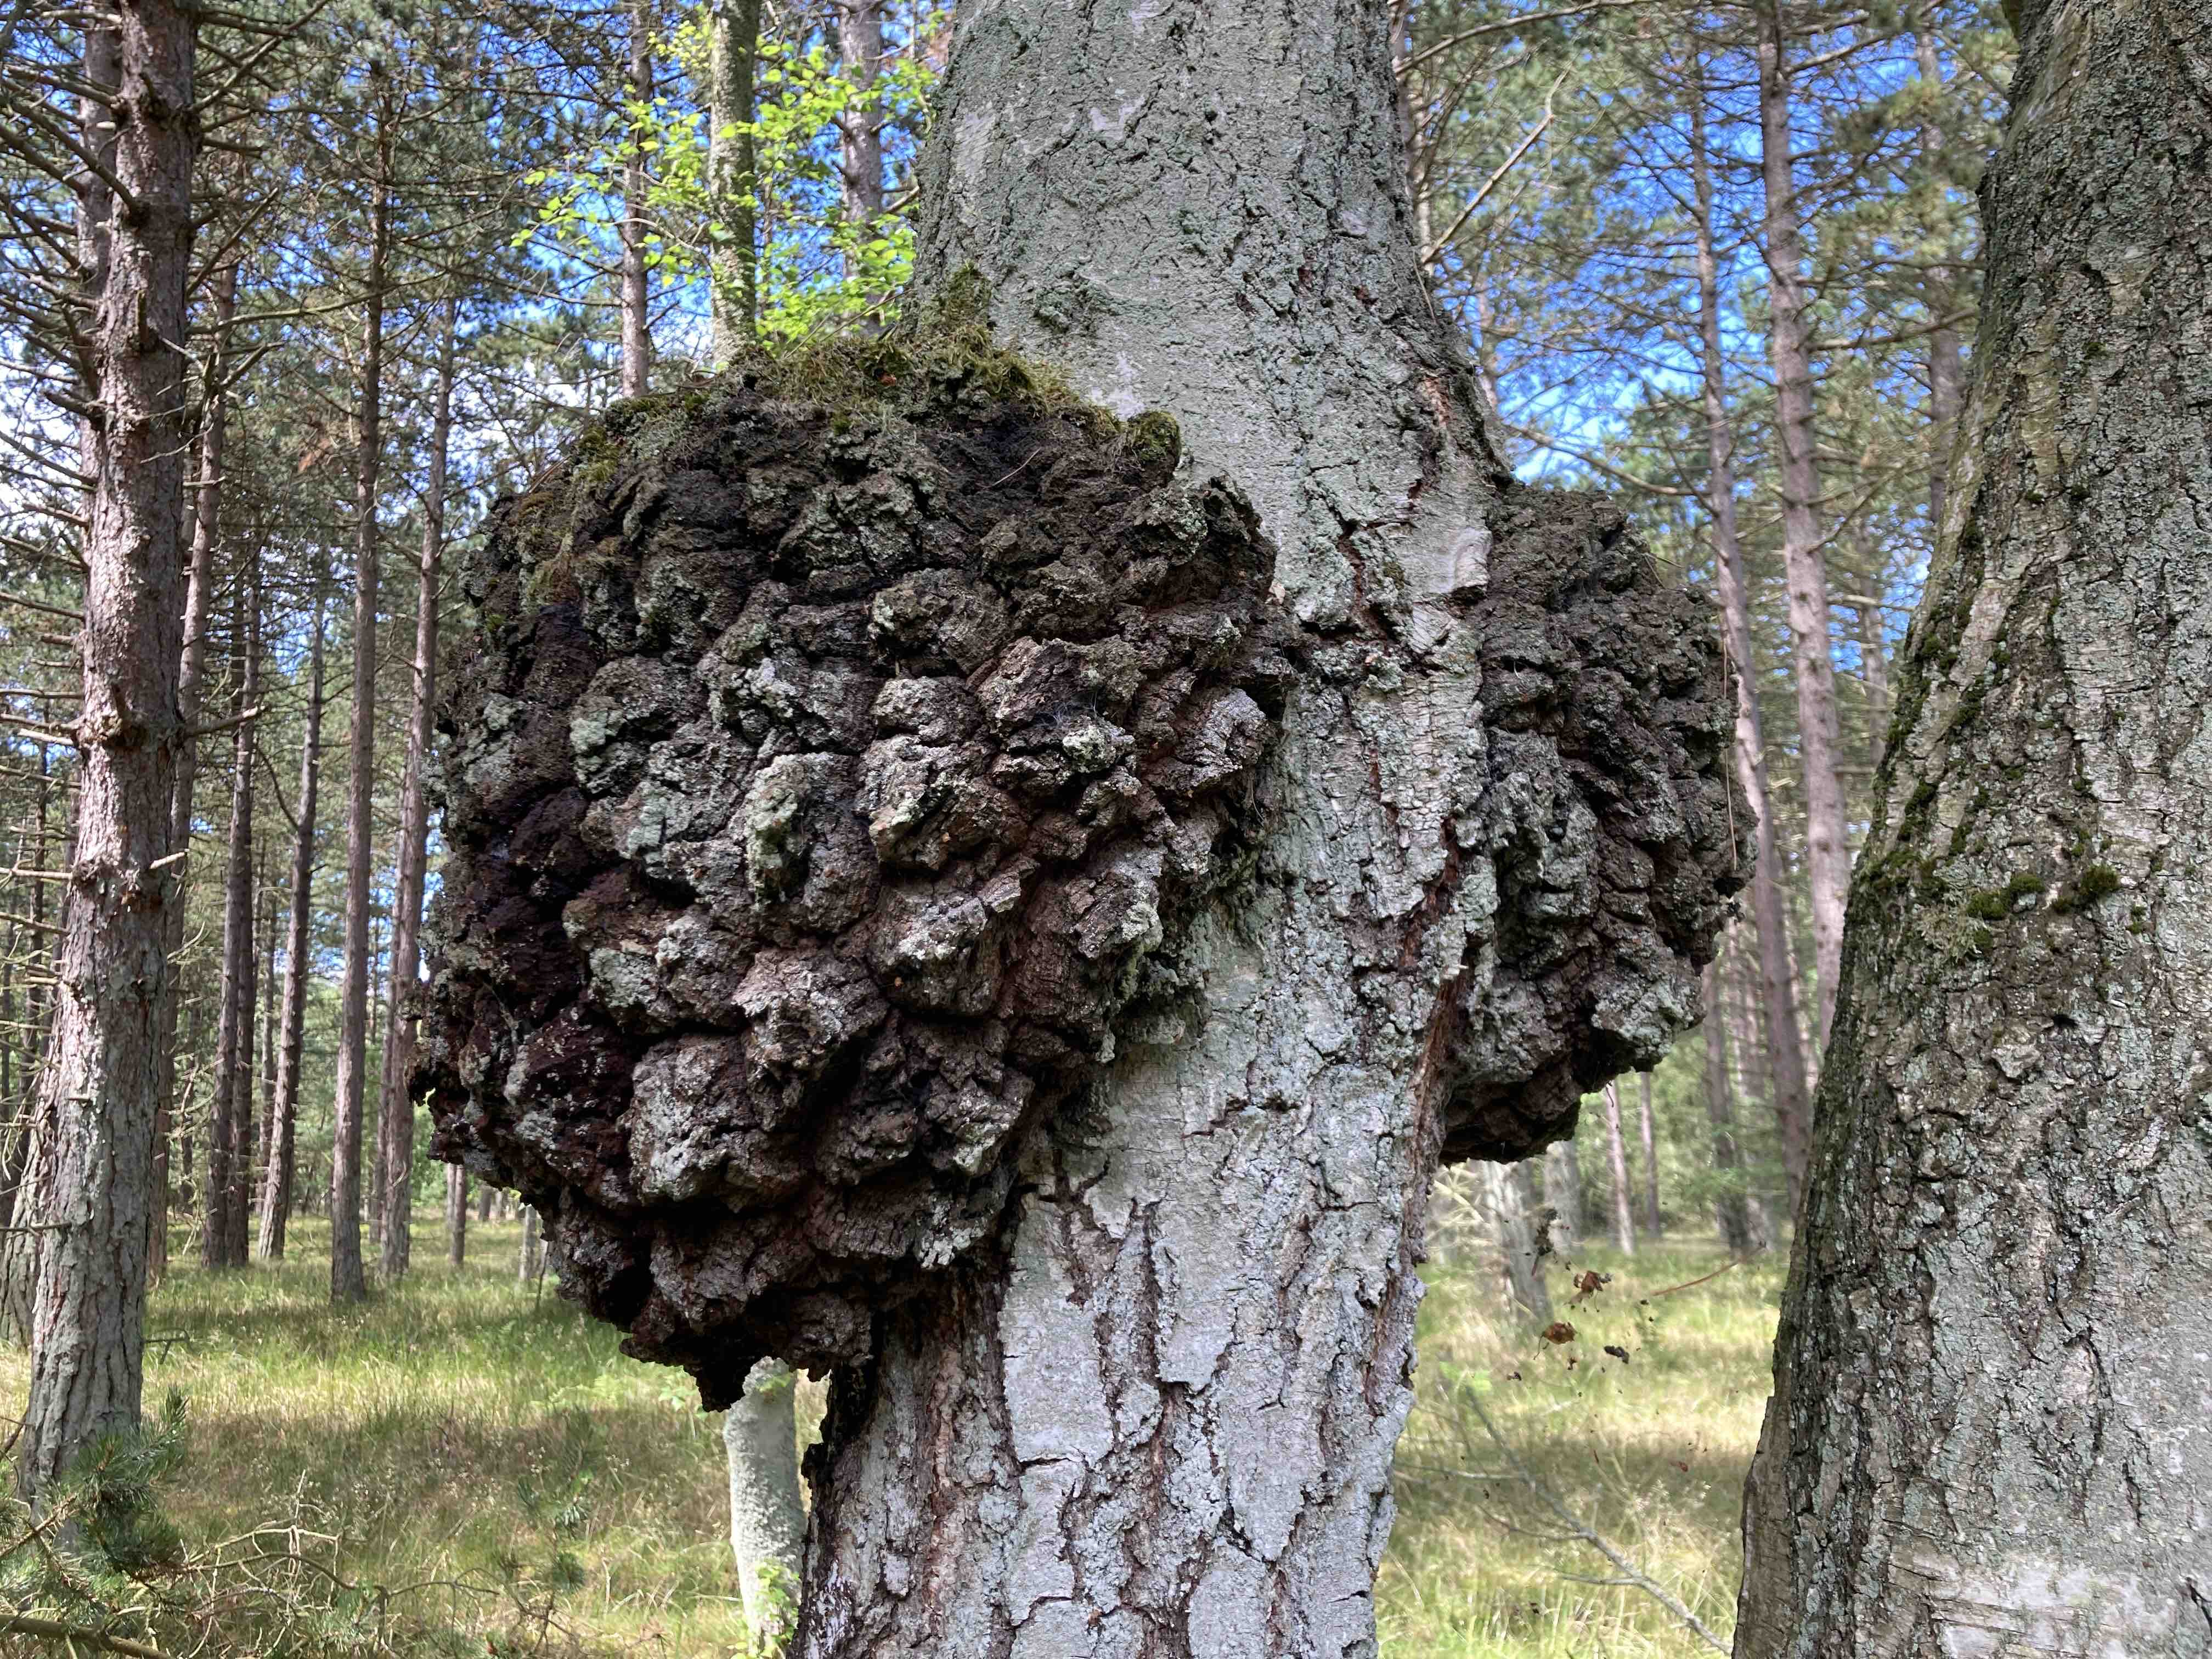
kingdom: Fungi
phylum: Basidiomycota
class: Agaricomycetes
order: Hymenochaetales
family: Hymenochaetaceae
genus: Inonotus
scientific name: Inonotus obliquus
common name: birke-spejlporesvamp
